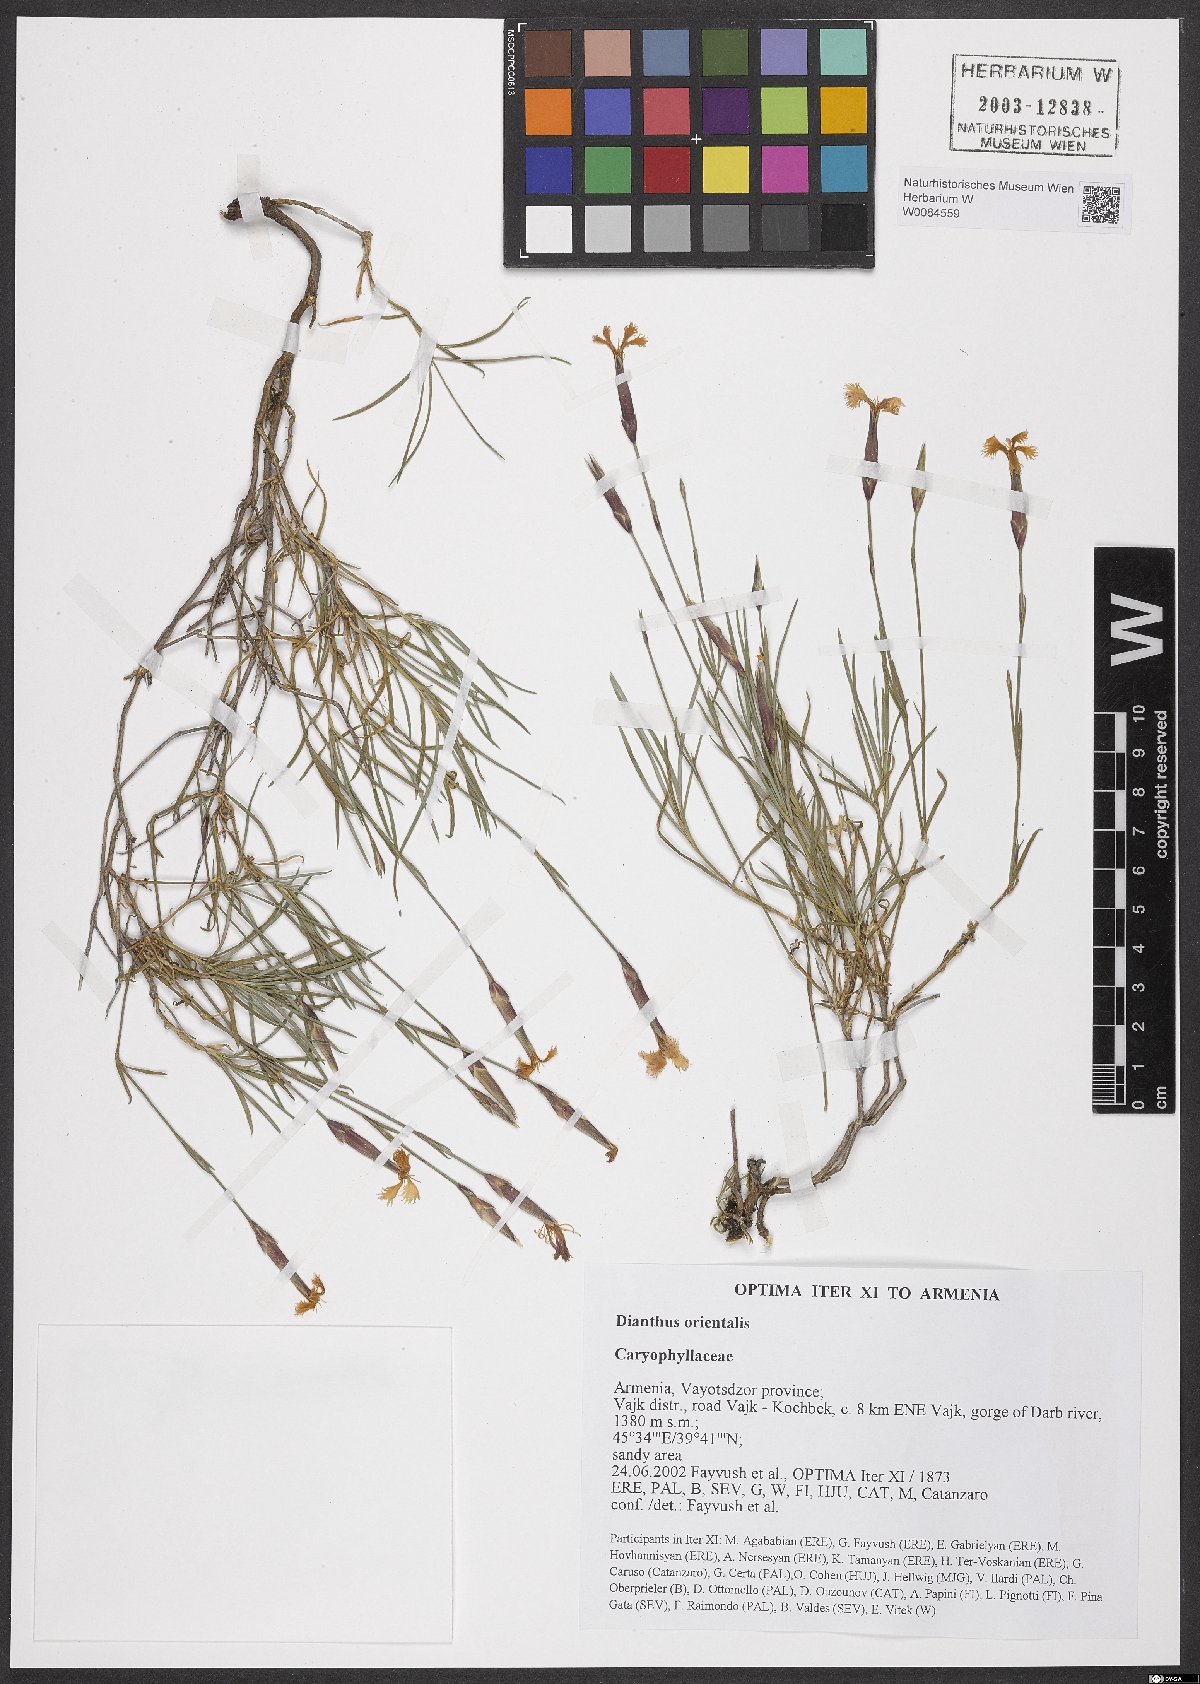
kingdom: Plantae
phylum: Tracheophyta
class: Magnoliopsida
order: Caryophyllales
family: Caryophyllaceae
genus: Dianthus
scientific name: Dianthus orientalis
